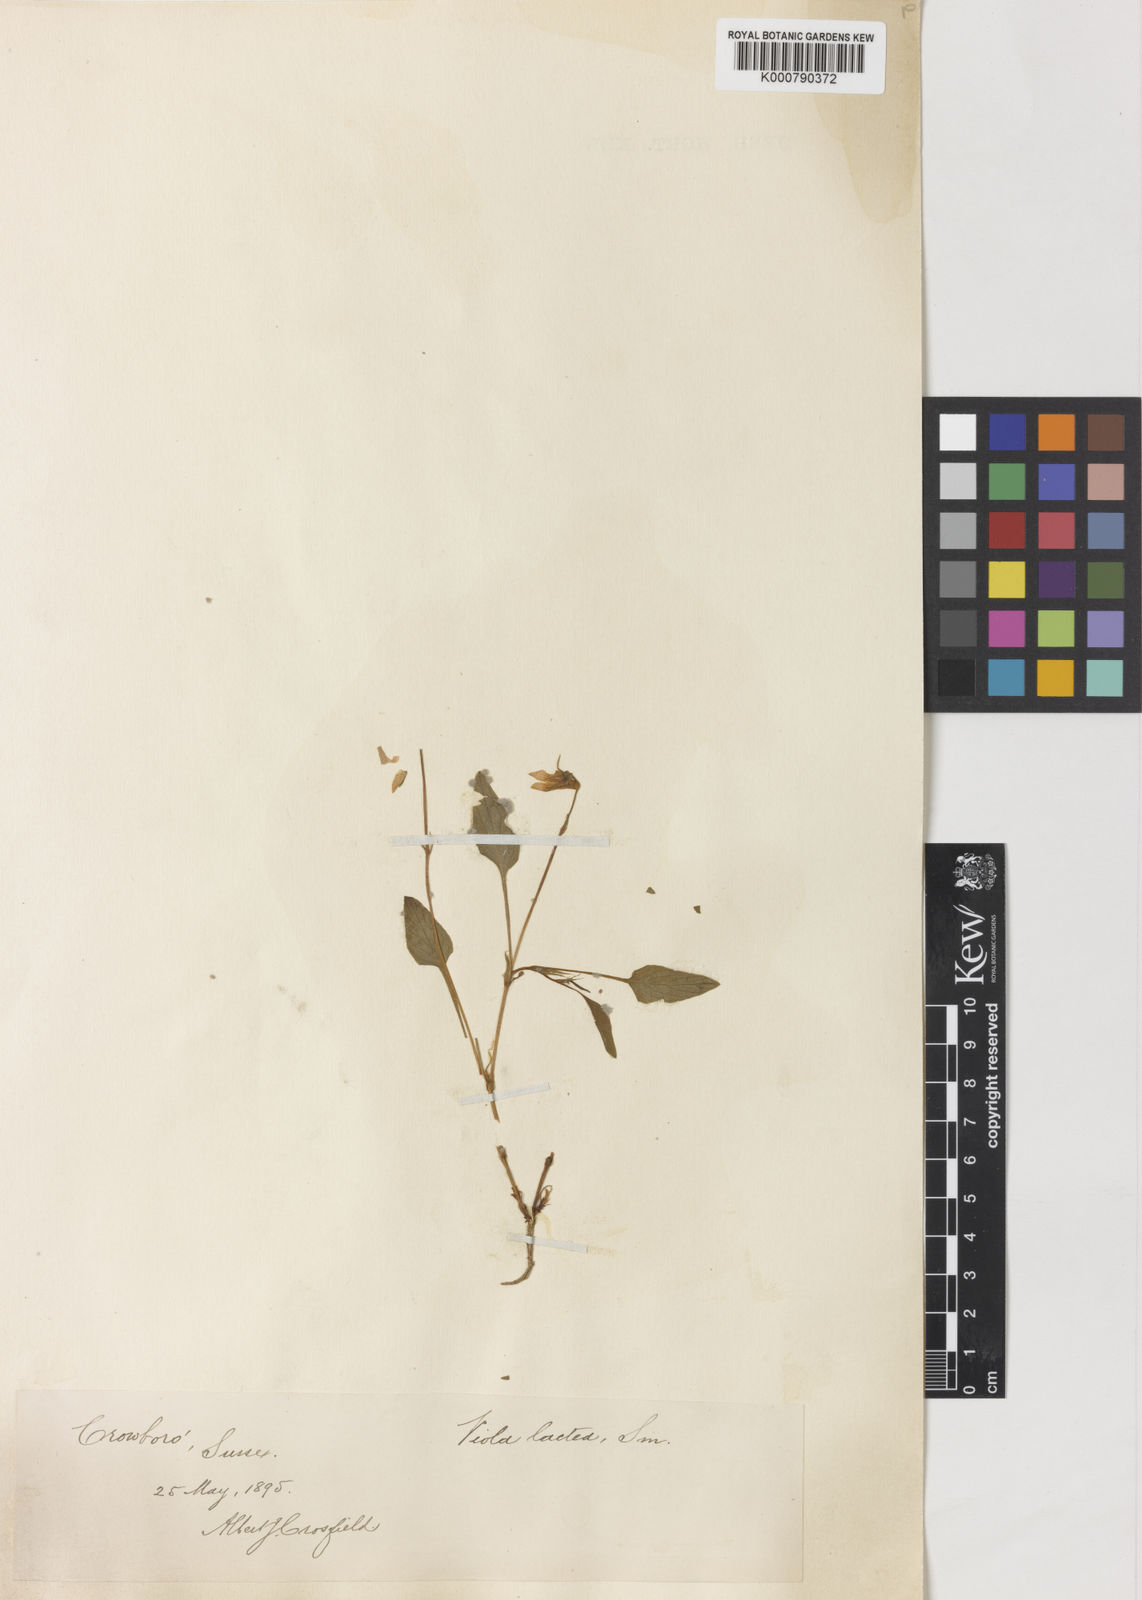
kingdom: Plantae
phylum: Tracheophyta
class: Magnoliopsida
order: Malpighiales
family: Violaceae
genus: Viola
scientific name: Viola lactea
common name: Pale dog-violet
